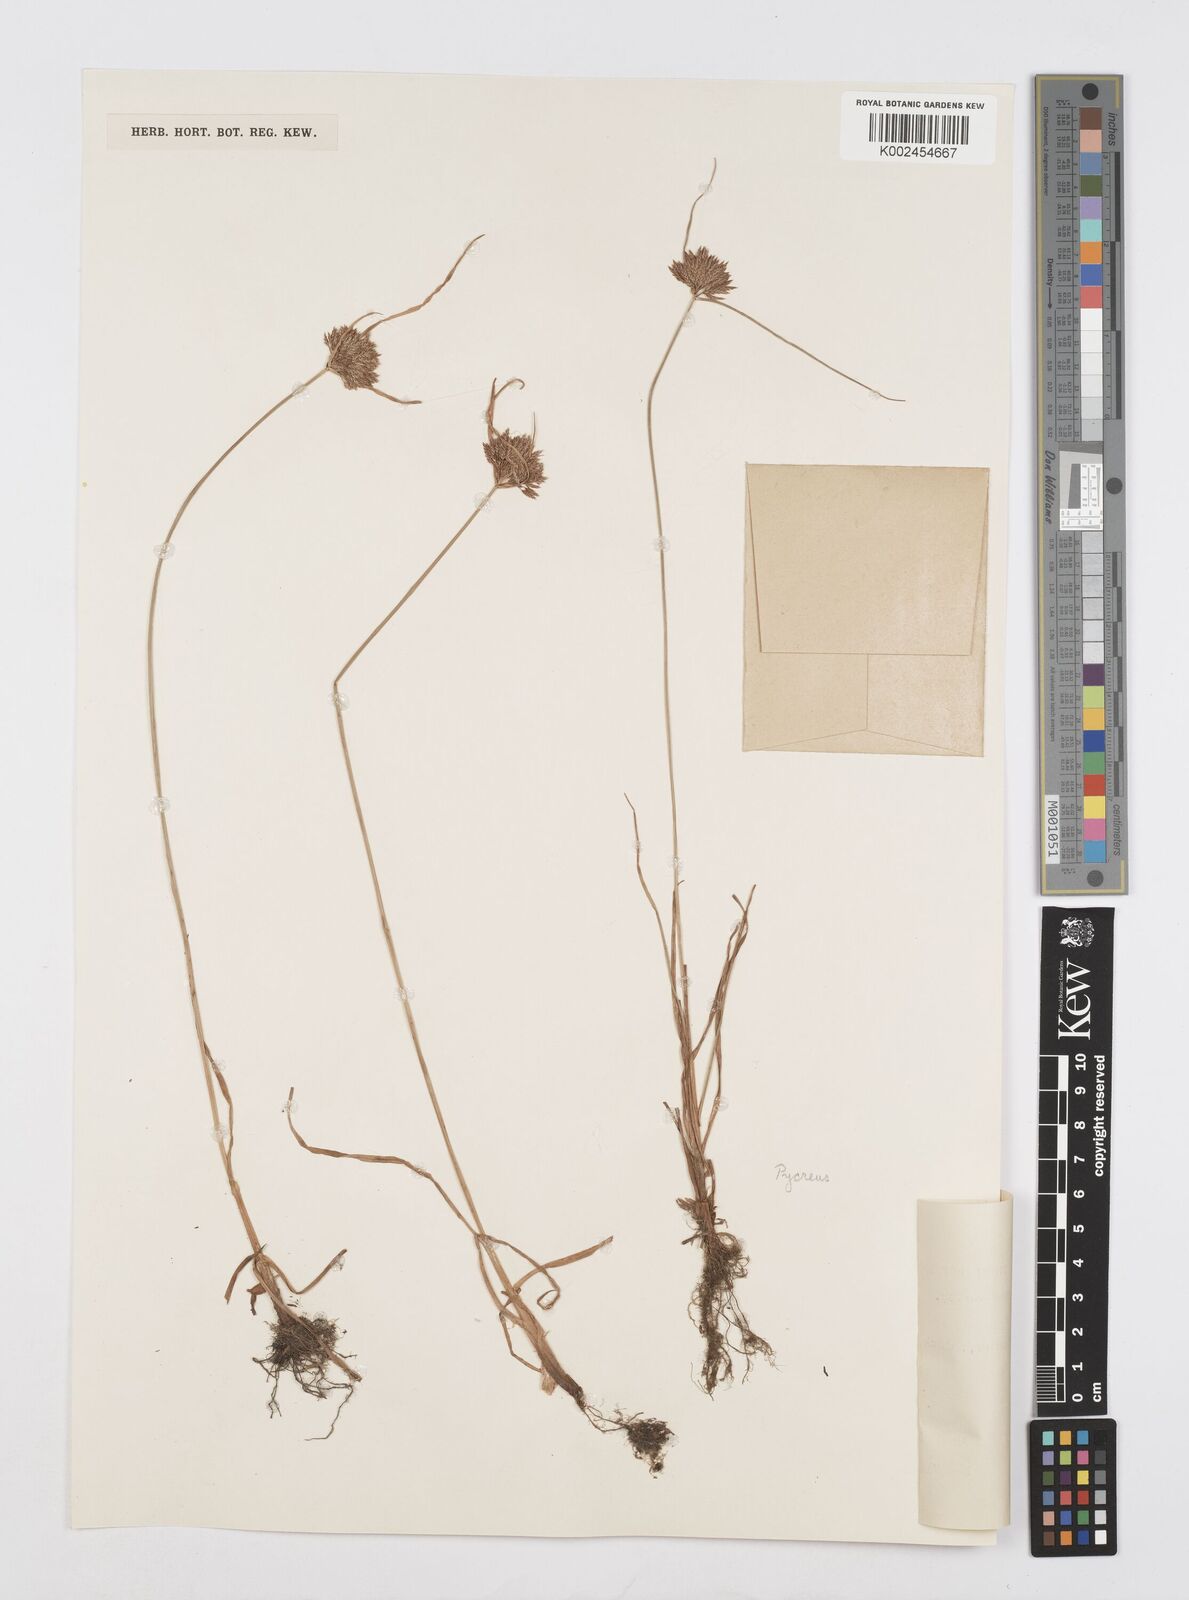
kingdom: Plantae
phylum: Tracheophyta
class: Liliopsida
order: Poales
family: Cyperaceae
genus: Cyperus
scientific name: Cyperus polystachyos
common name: Bunchy flat sedge
